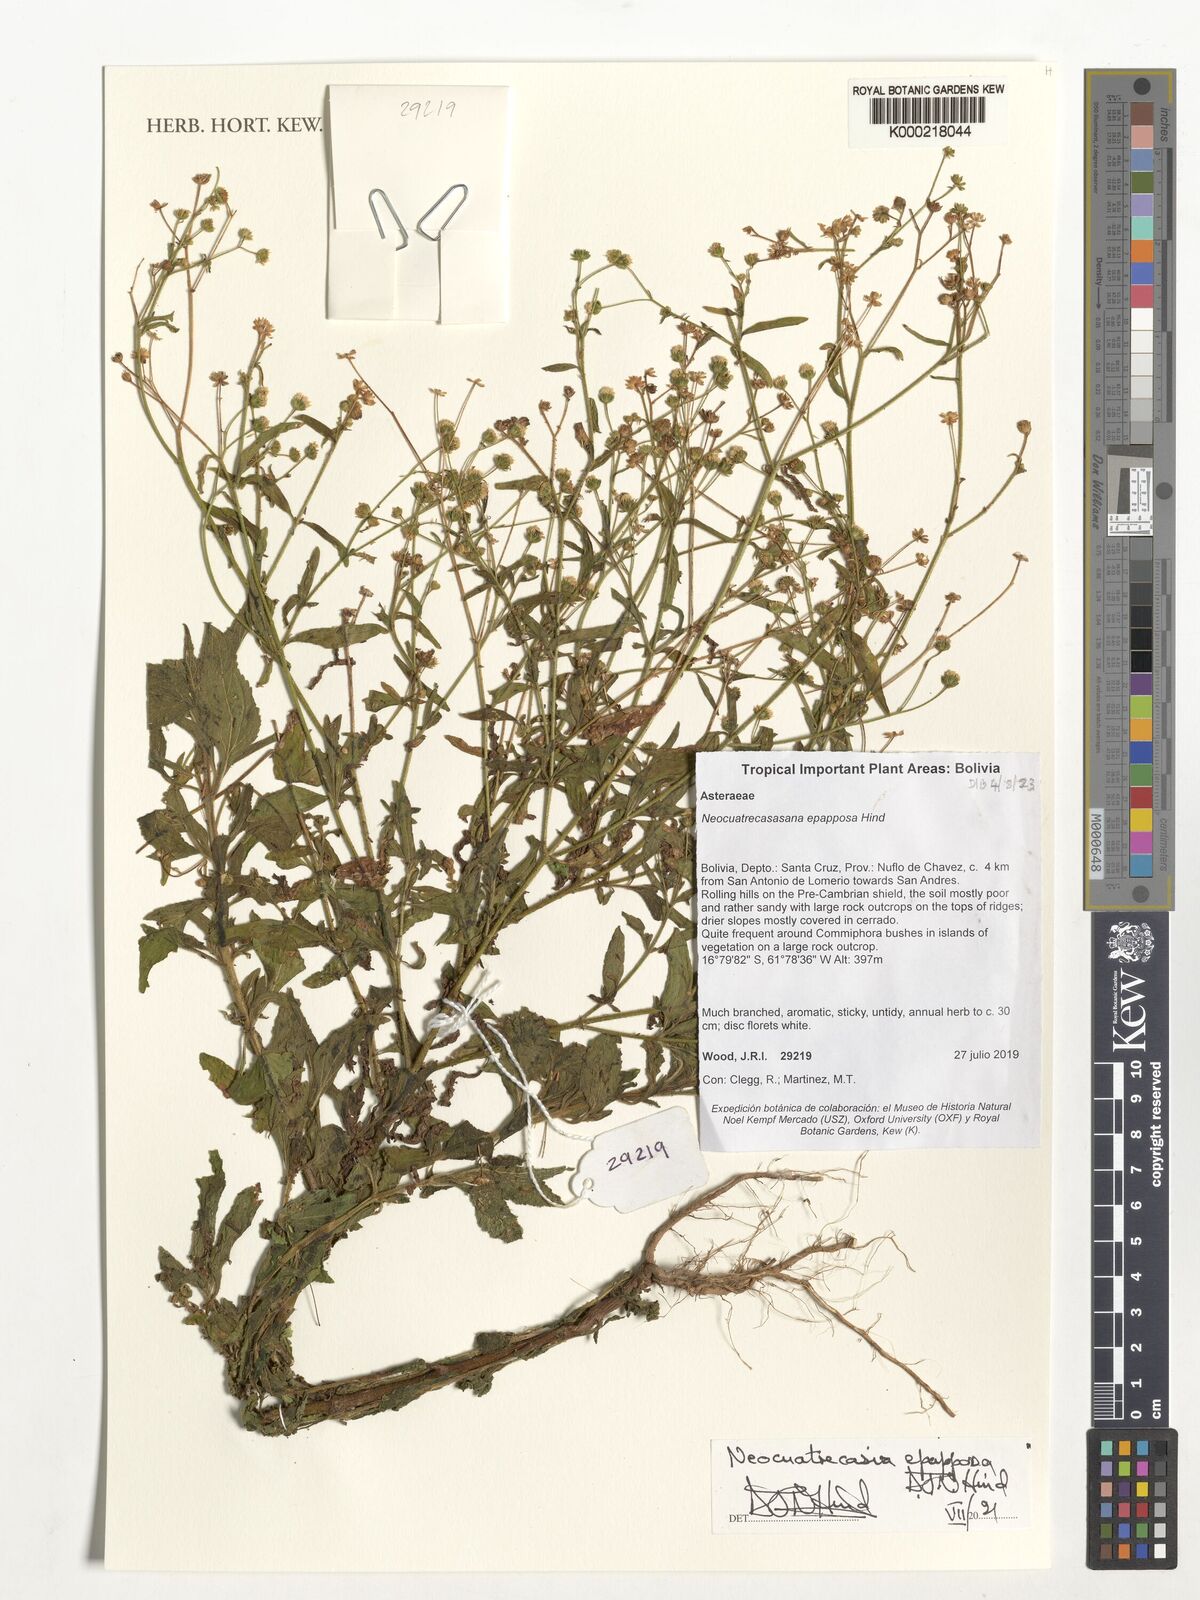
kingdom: Plantae
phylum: Tracheophyta
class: Magnoliopsida
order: Asterales
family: Asteraceae
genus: Neocuatrecasia
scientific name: Neocuatrecasia epapposa
